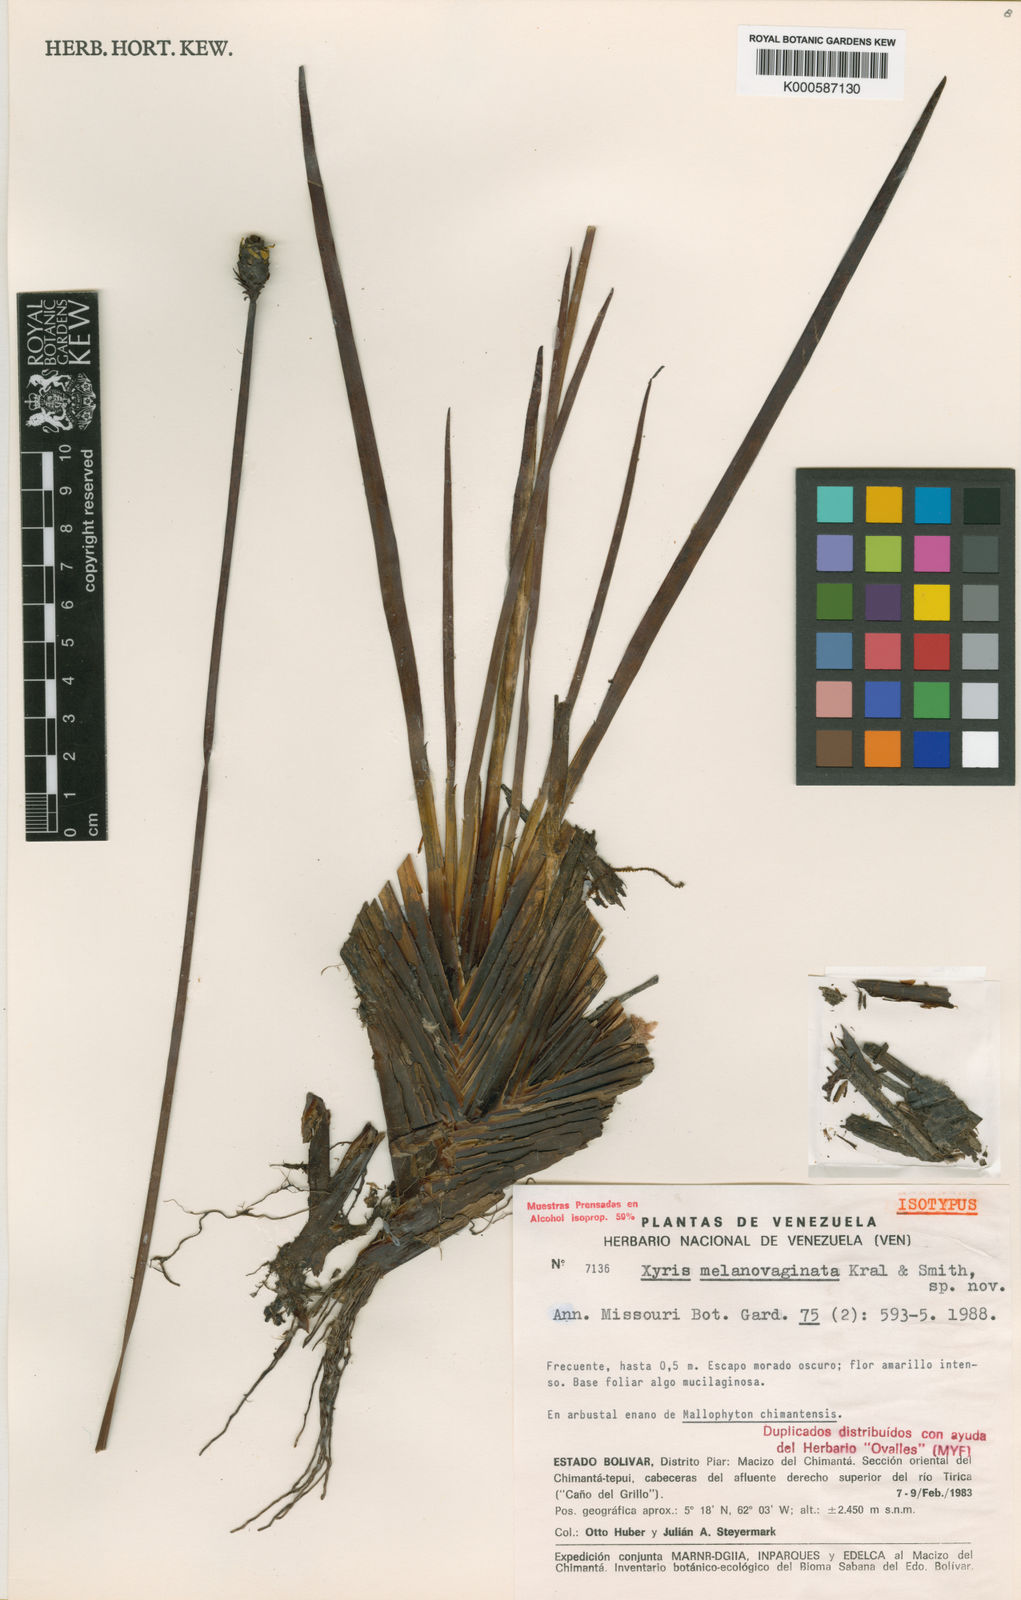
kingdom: Plantae
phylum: Tracheophyta
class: Liliopsida
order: Poales
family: Xyridaceae
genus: Xyris
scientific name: Xyris melanovaginata
